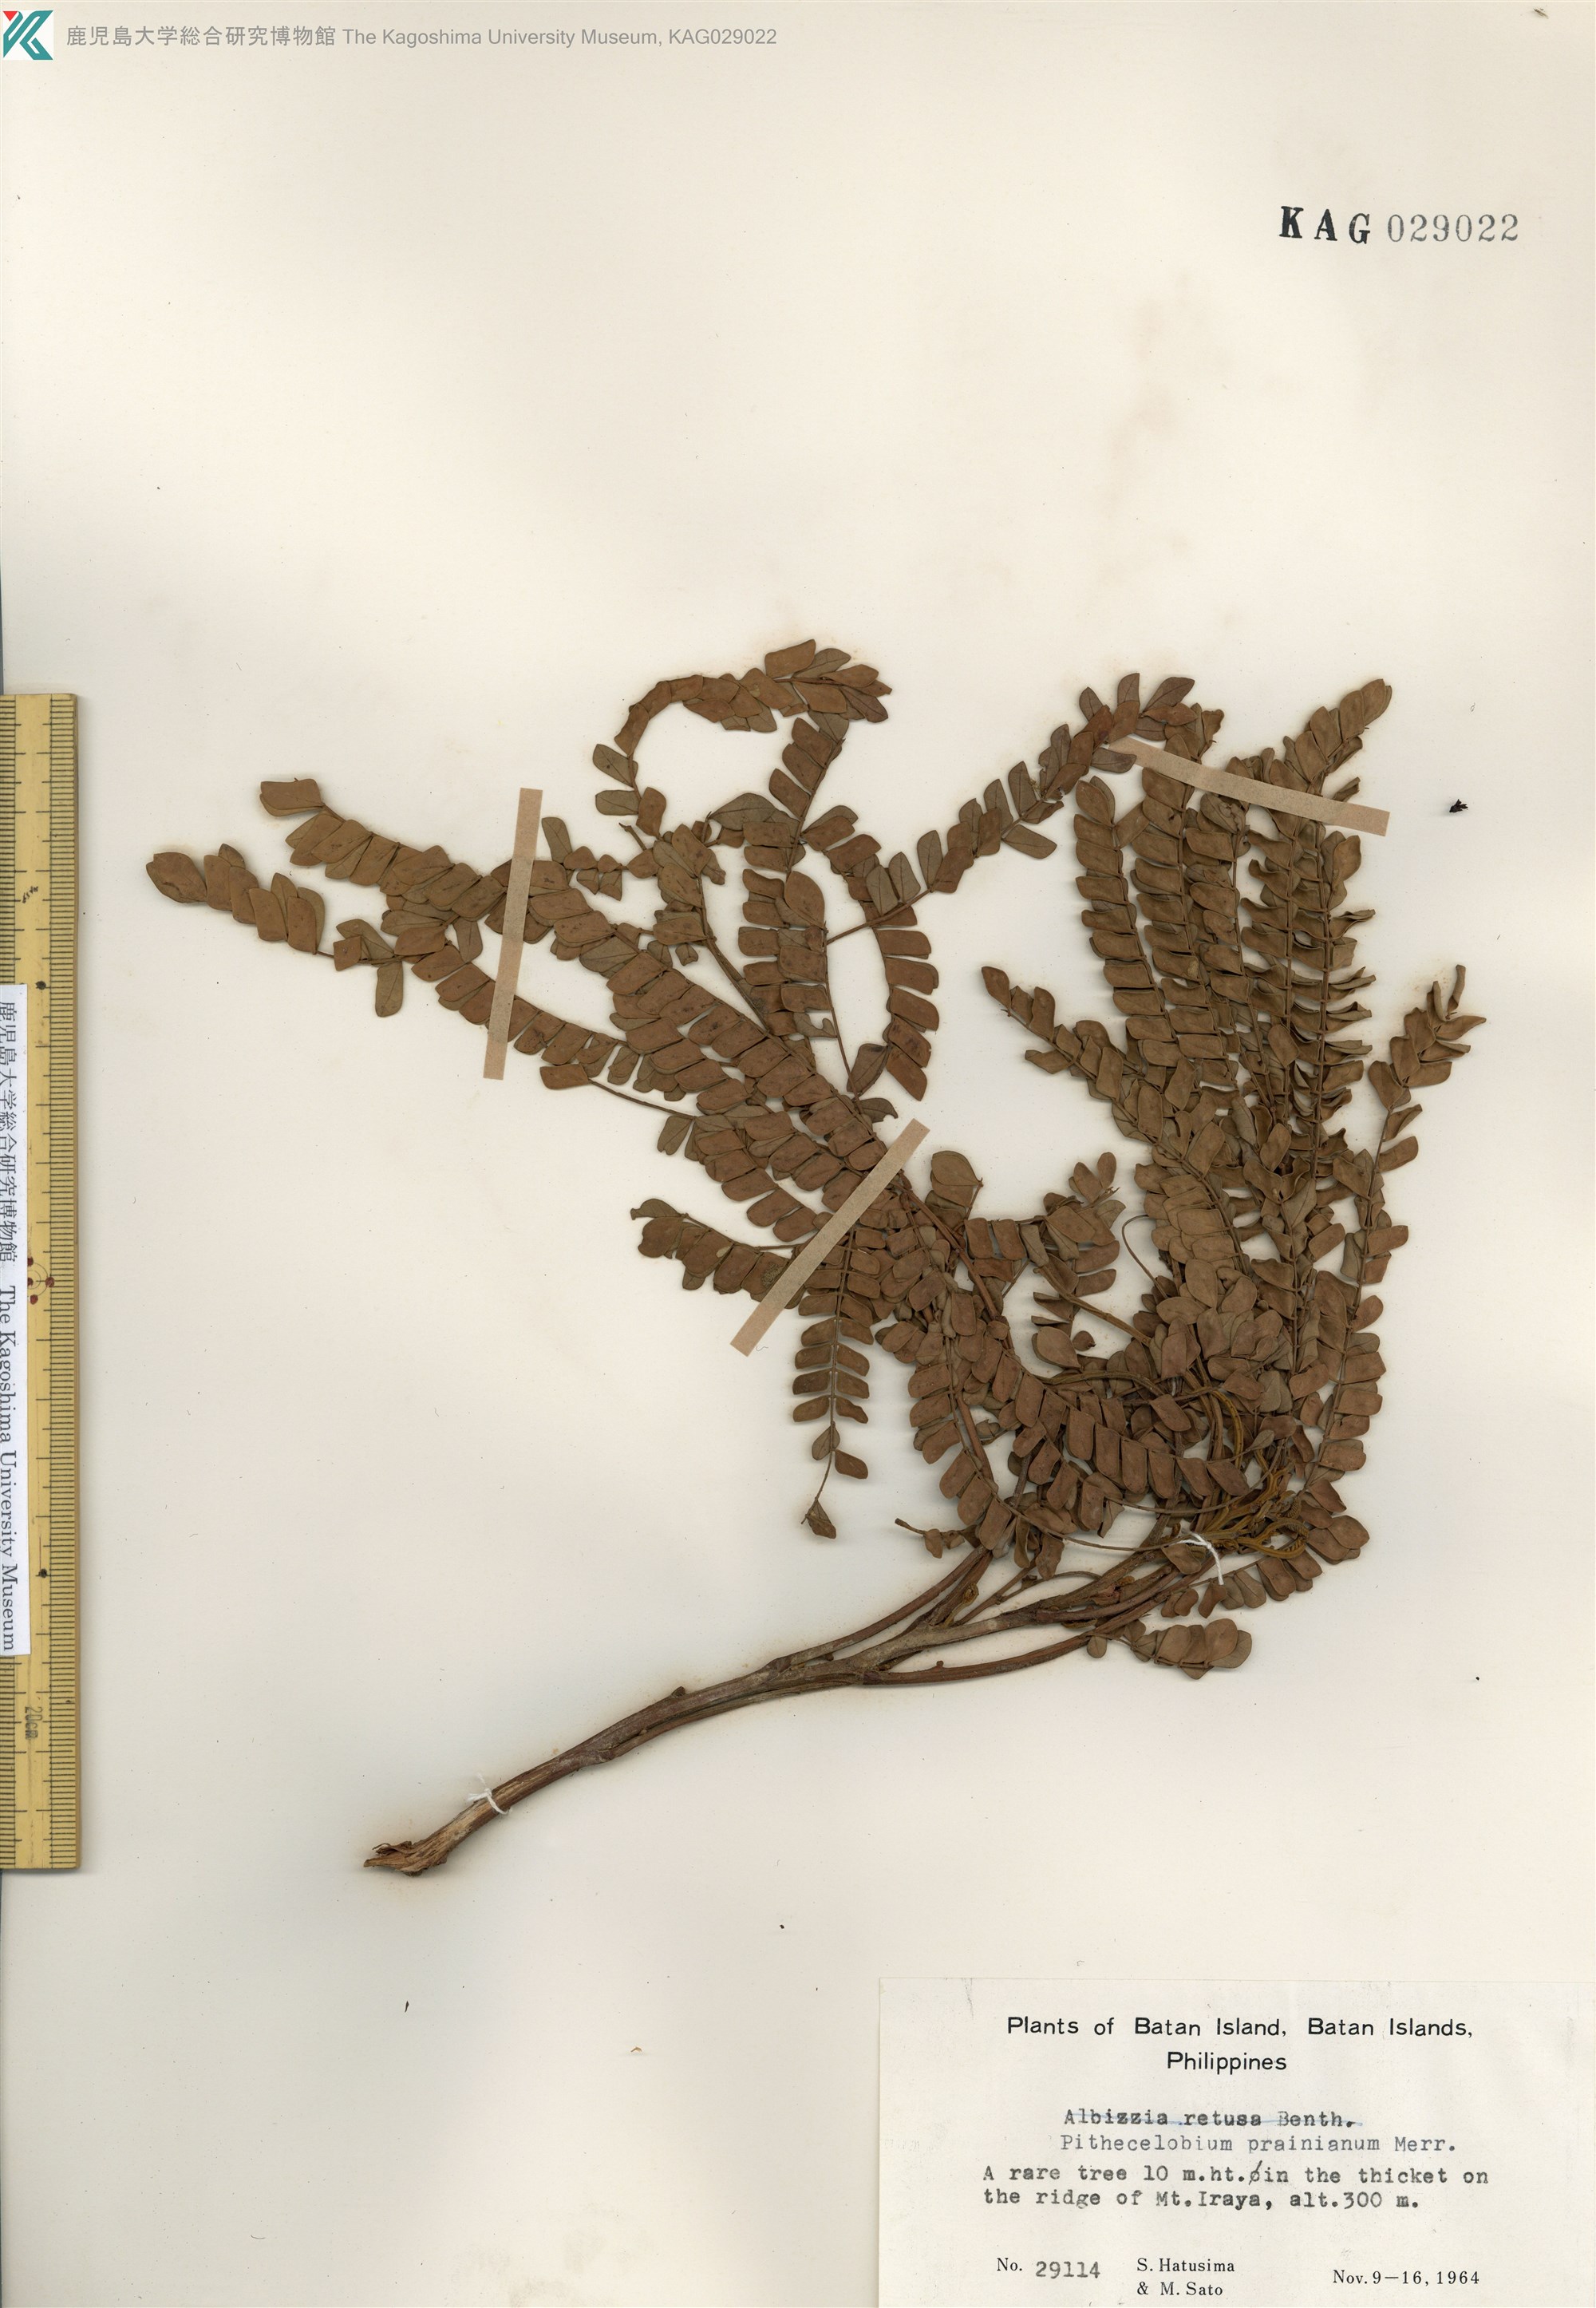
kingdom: Plantae
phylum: Tracheophyta
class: Magnoliopsida
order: Fabales
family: Fabaceae
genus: Pithecellobium
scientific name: Pithecellobium
